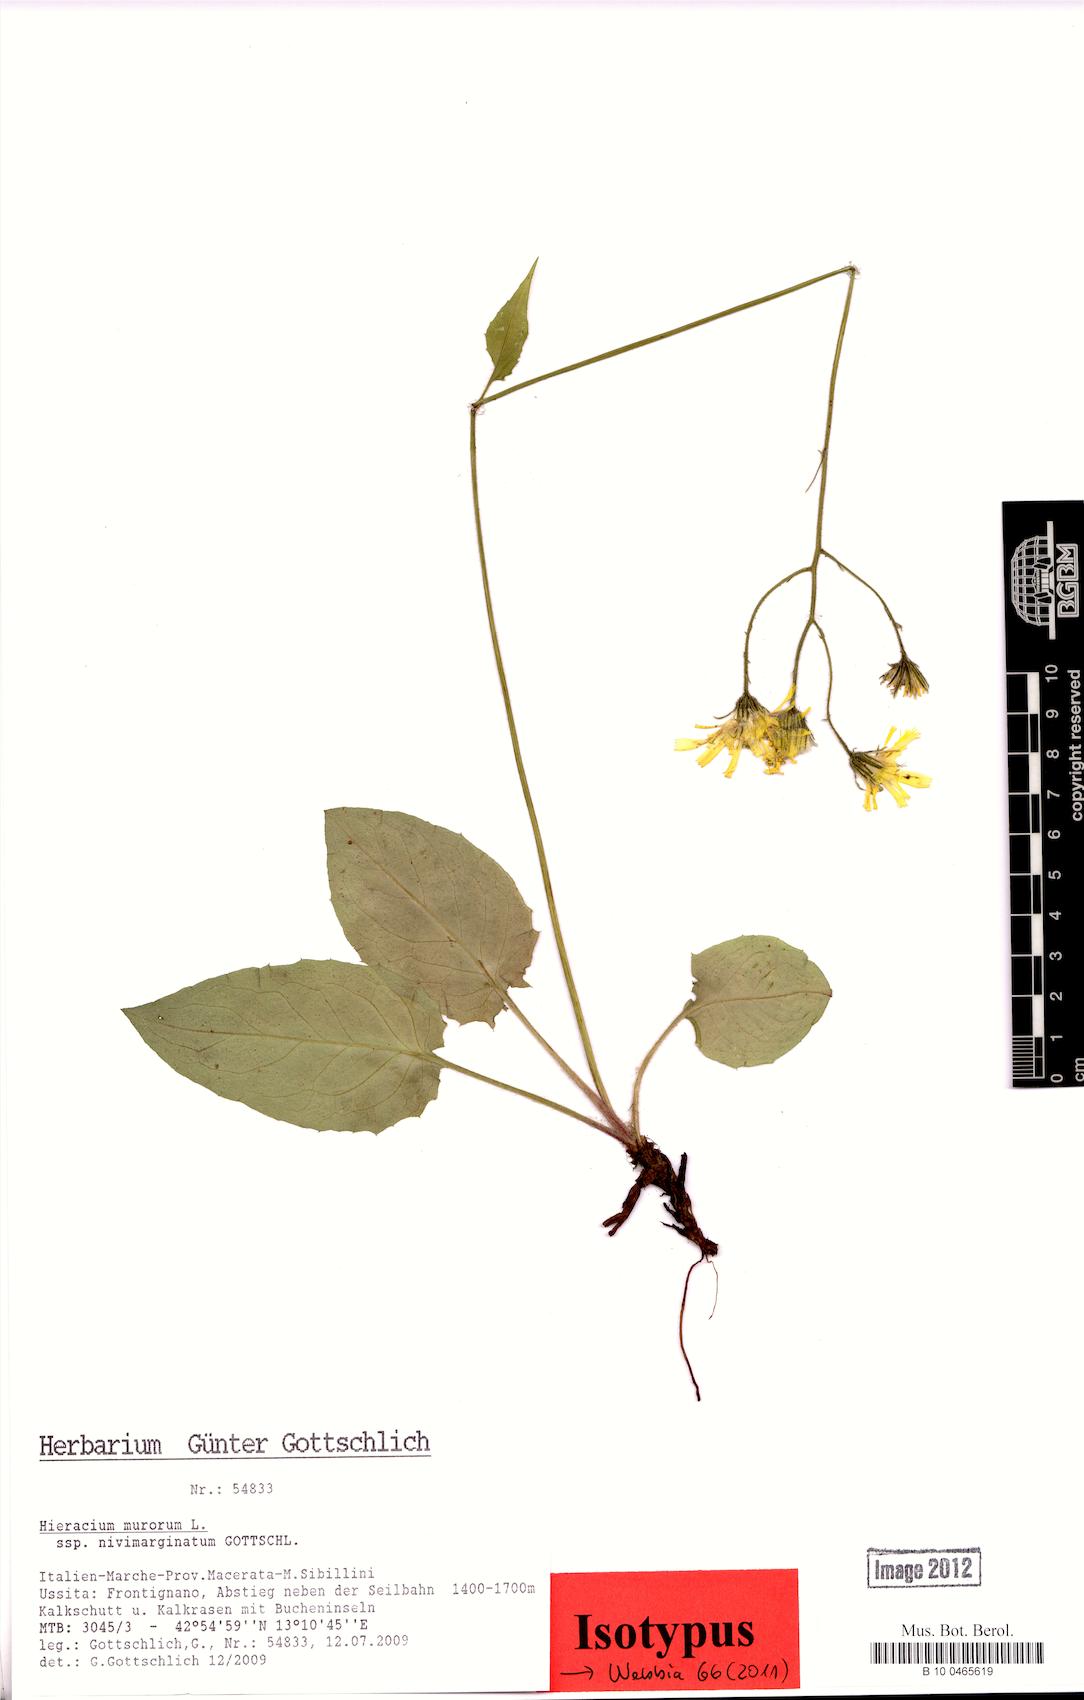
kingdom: Plantae
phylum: Tracheophyta
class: Magnoliopsida
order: Asterales
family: Asteraceae
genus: Hieracium
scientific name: Hieracium murorum
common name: Wall hawkweed
